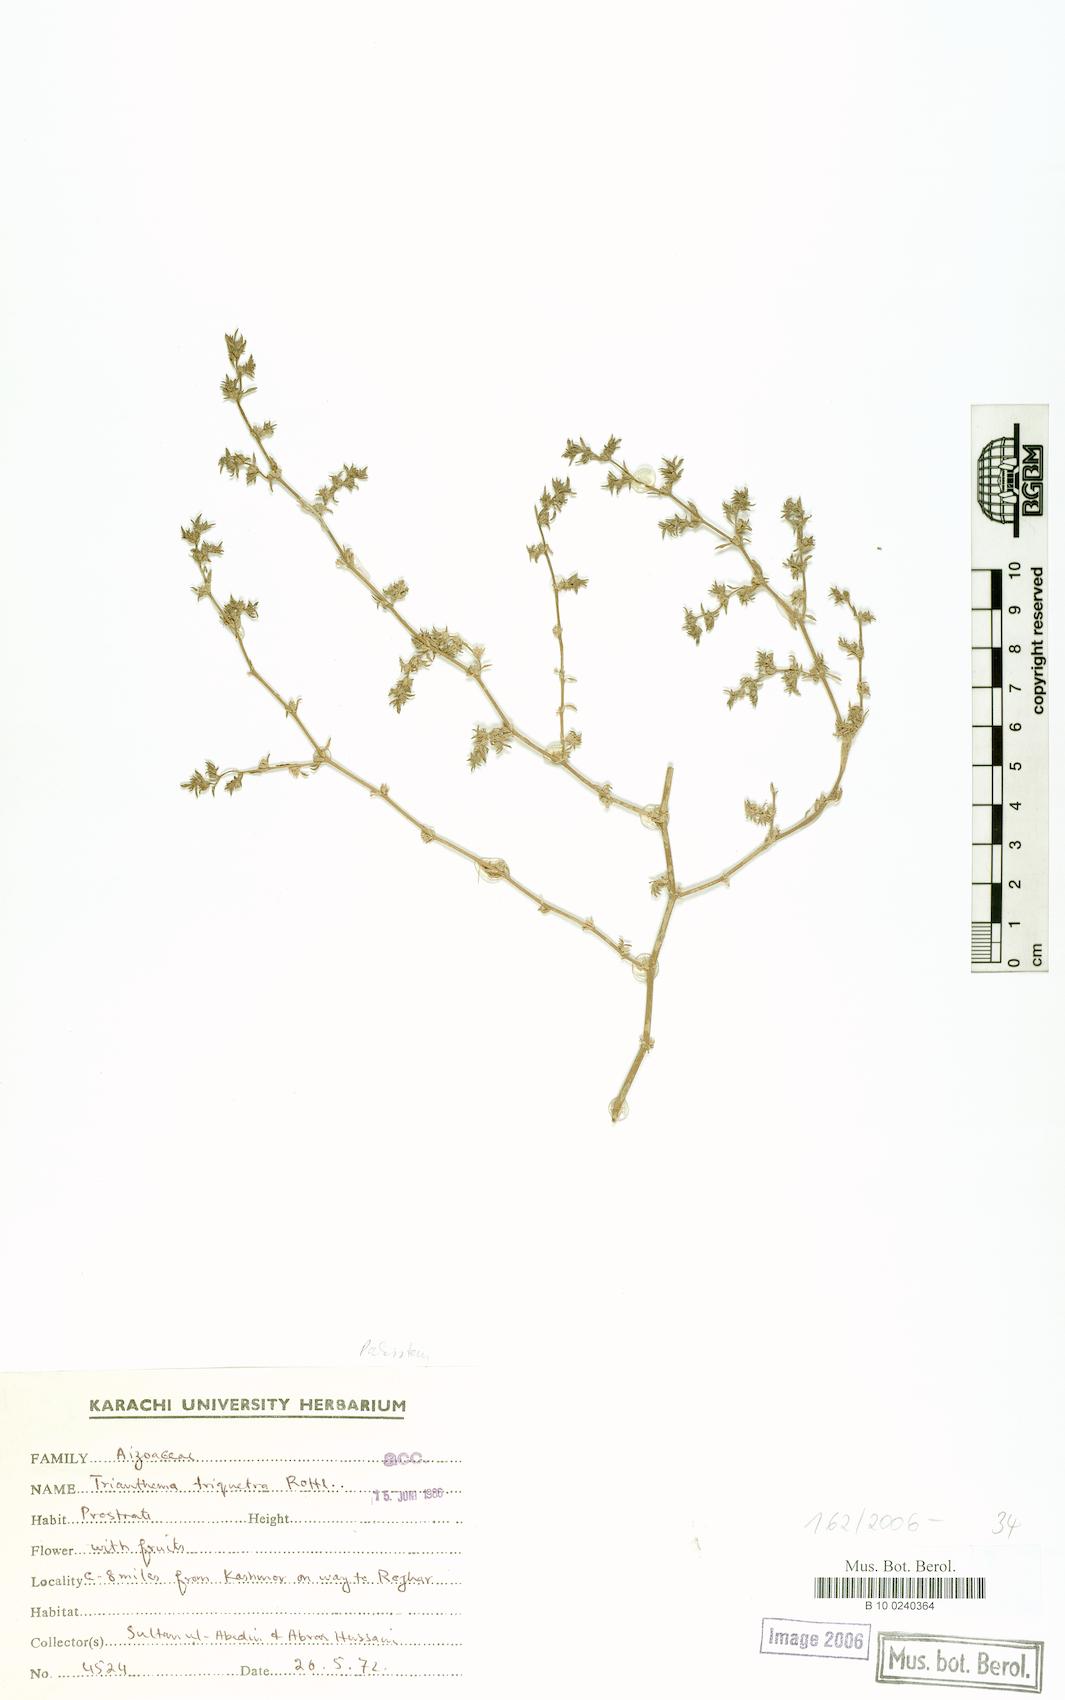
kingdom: Plantae
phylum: Tracheophyta
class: Magnoliopsida
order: Caryophyllales
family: Aizoaceae
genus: Trianthema
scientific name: Trianthema triquetrum
